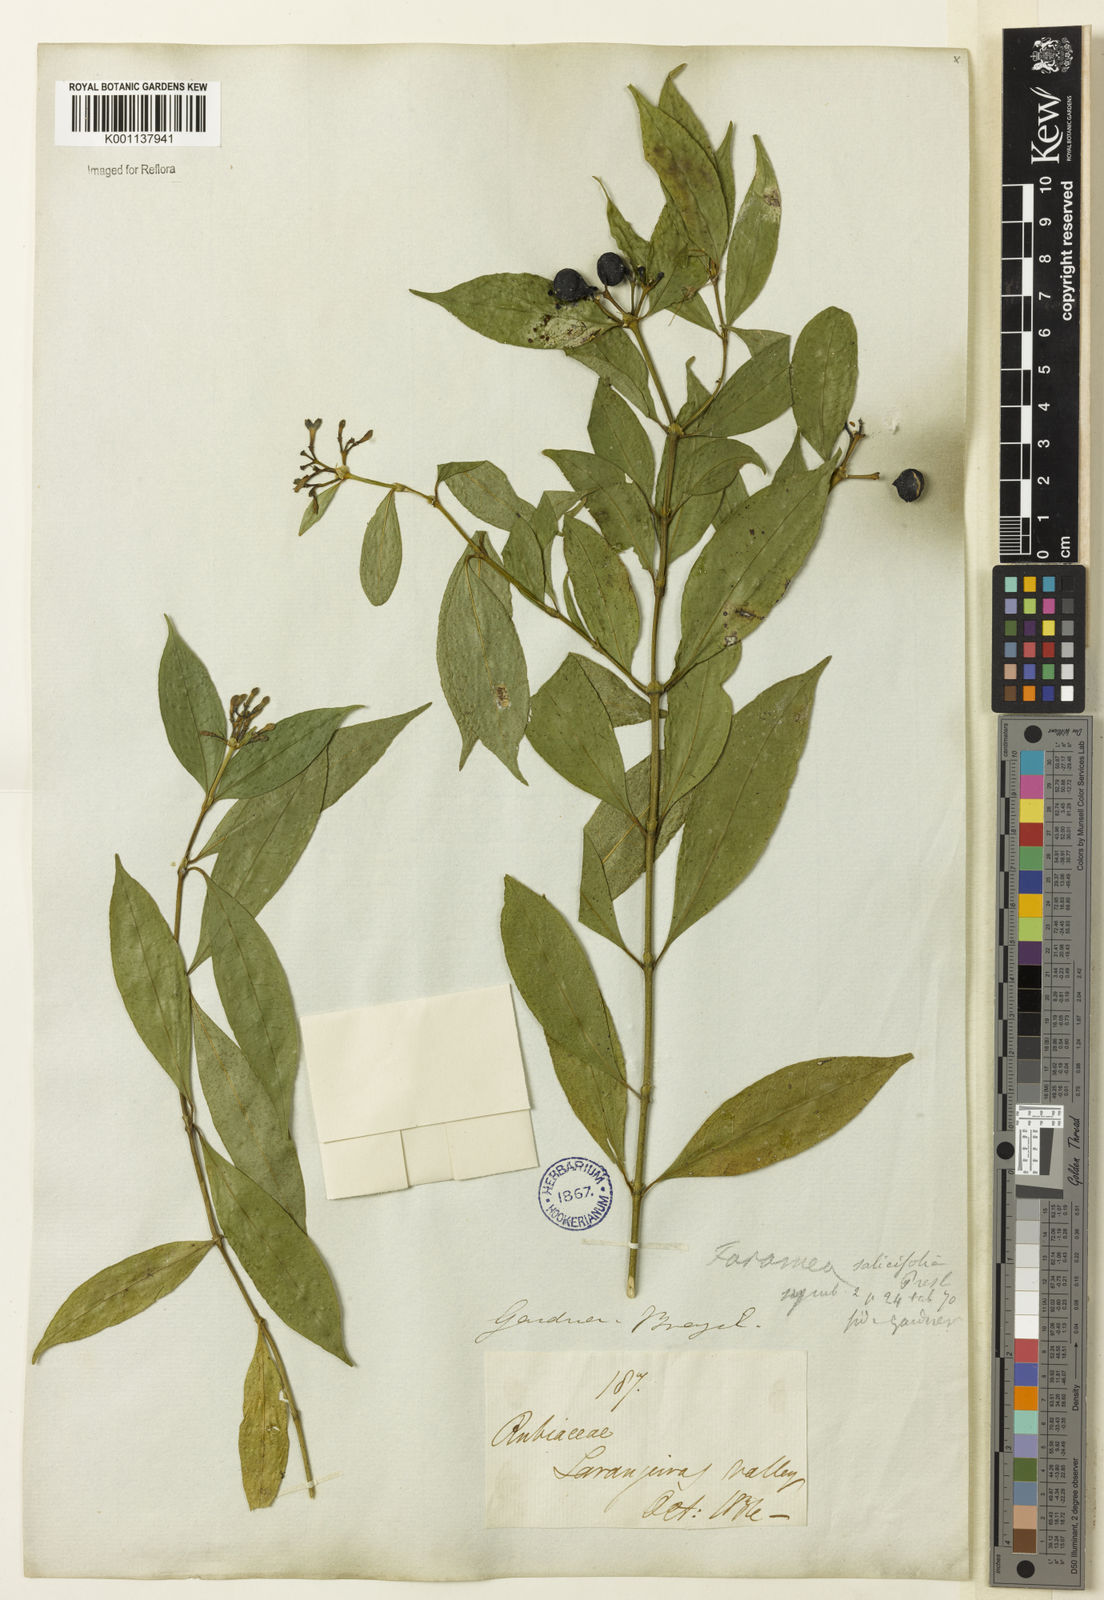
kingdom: Plantae
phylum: Tracheophyta
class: Magnoliopsida
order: Gentianales
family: Rubiaceae
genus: Faramea
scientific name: Faramea multiflora
